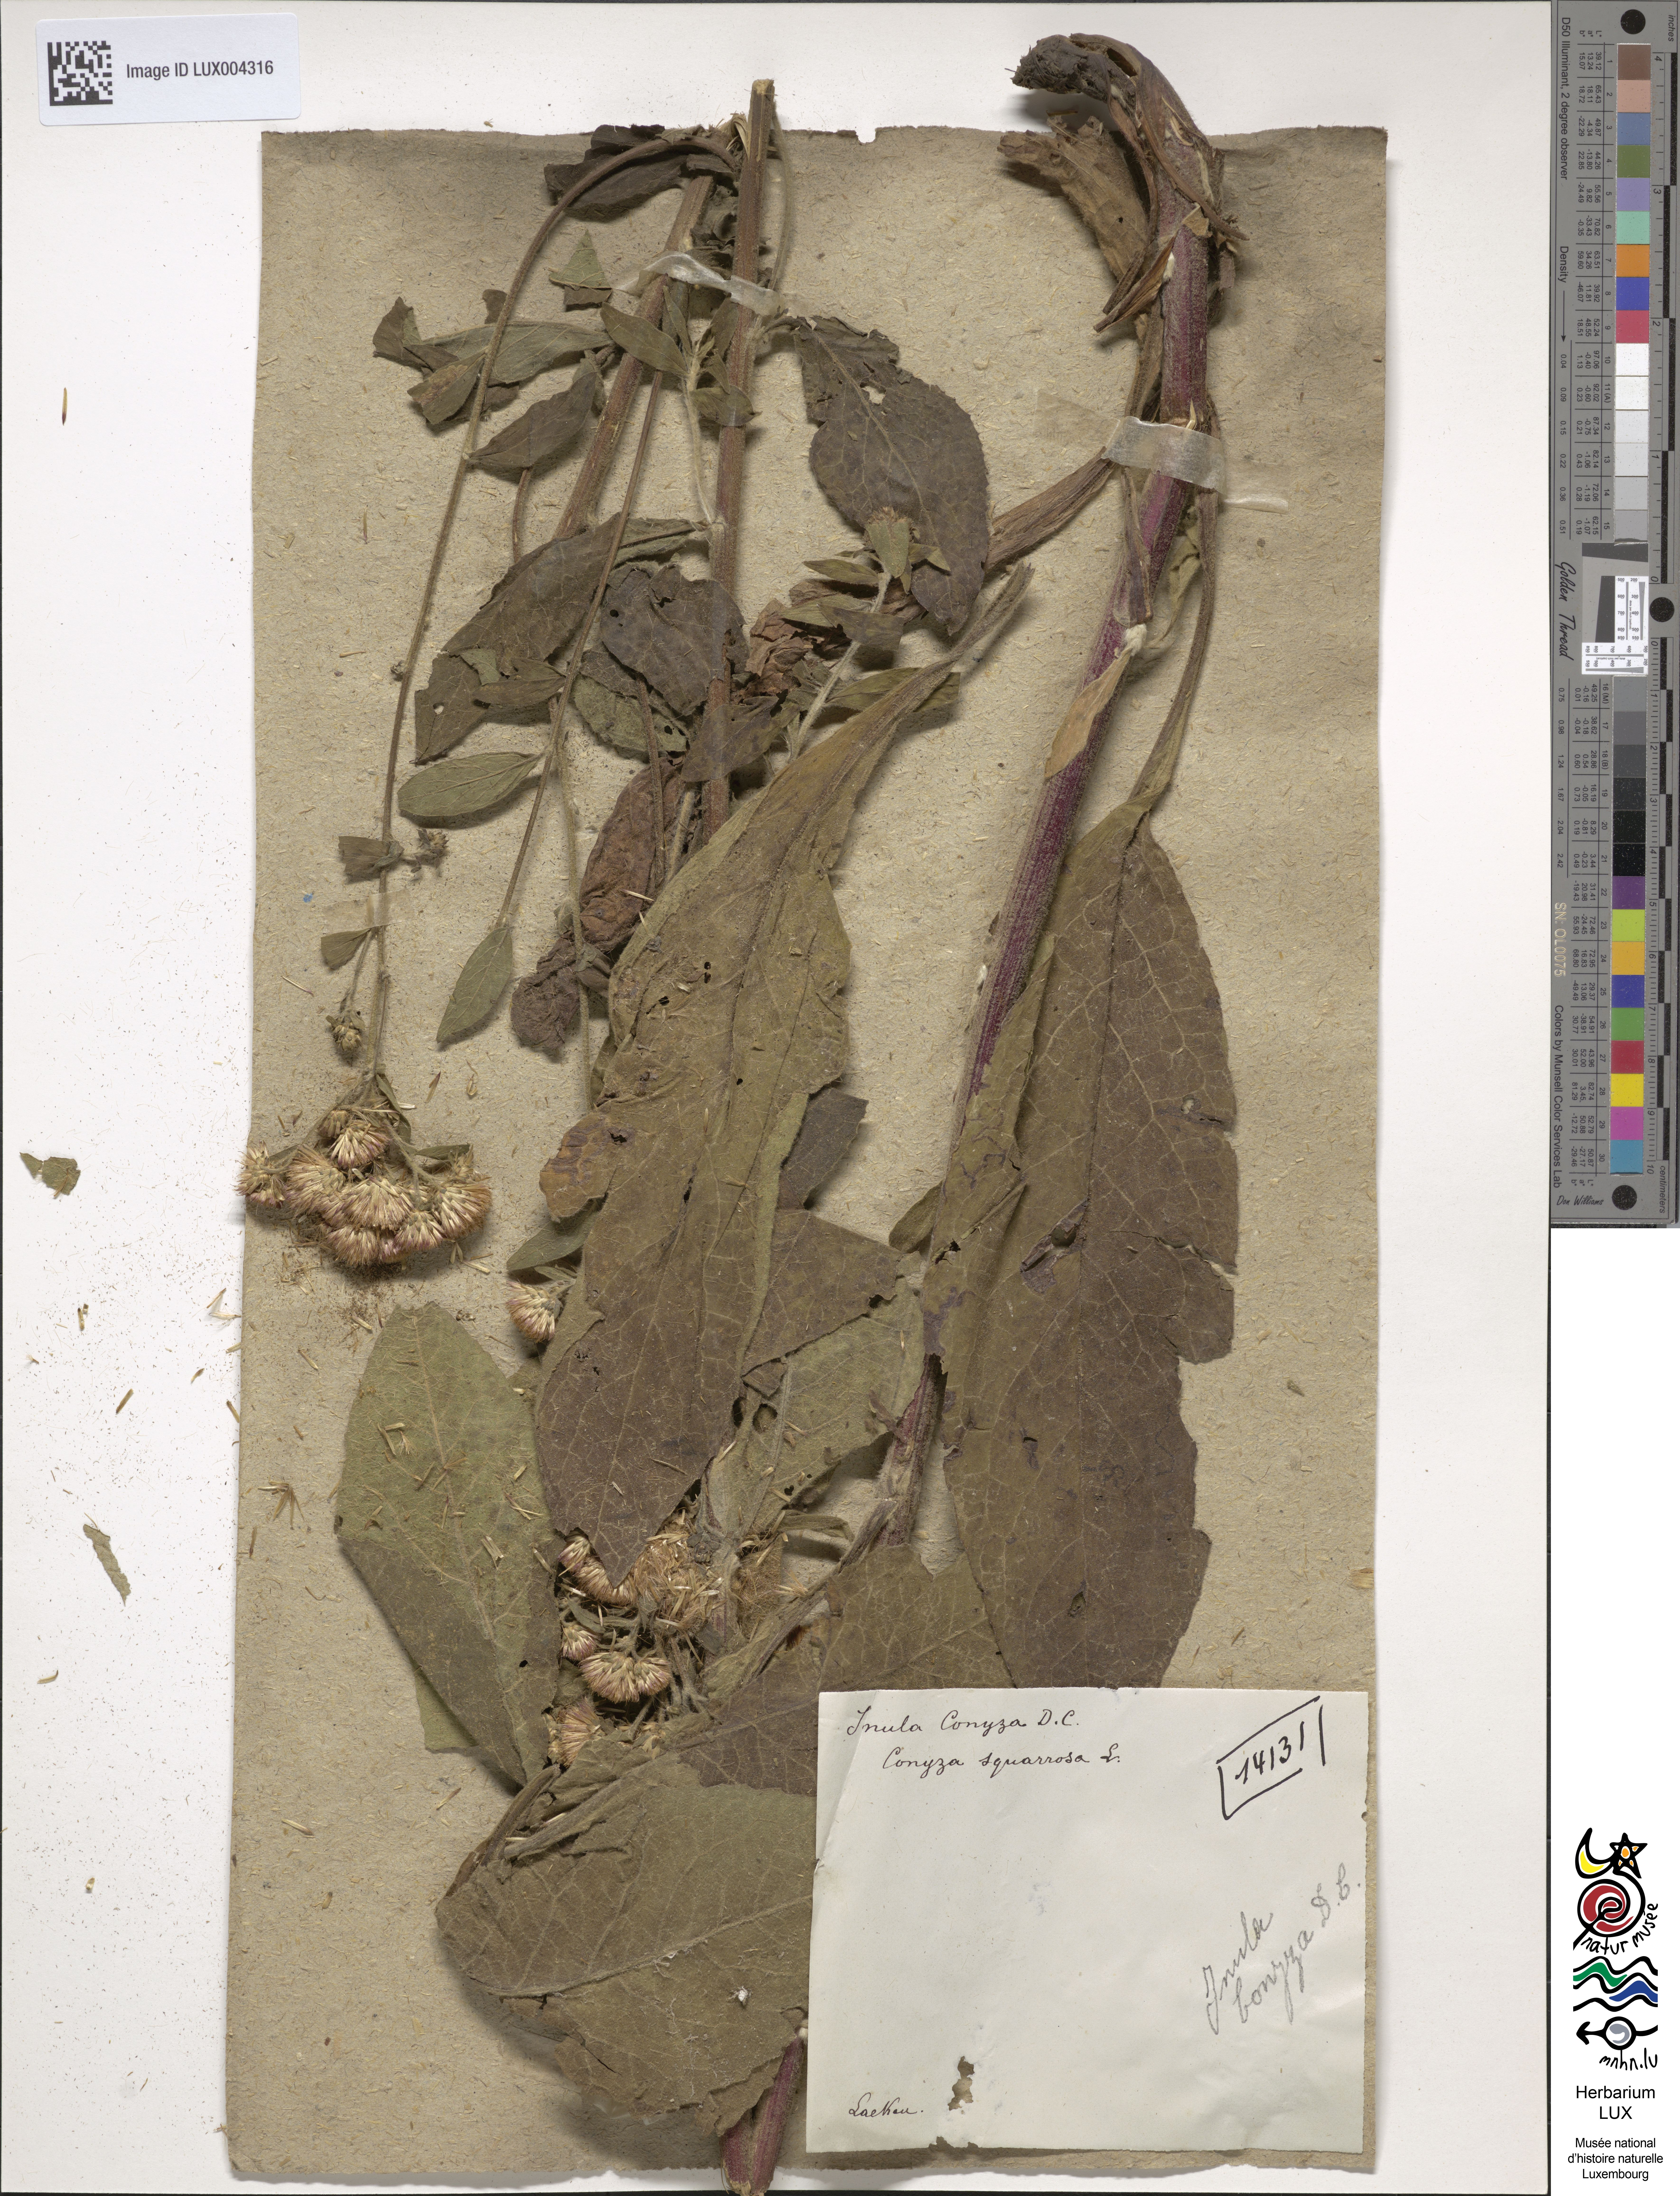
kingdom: Plantae
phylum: Tracheophyta
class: Magnoliopsida
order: Asterales
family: Asteraceae
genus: Pentanema
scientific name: Pentanema squarrosum
